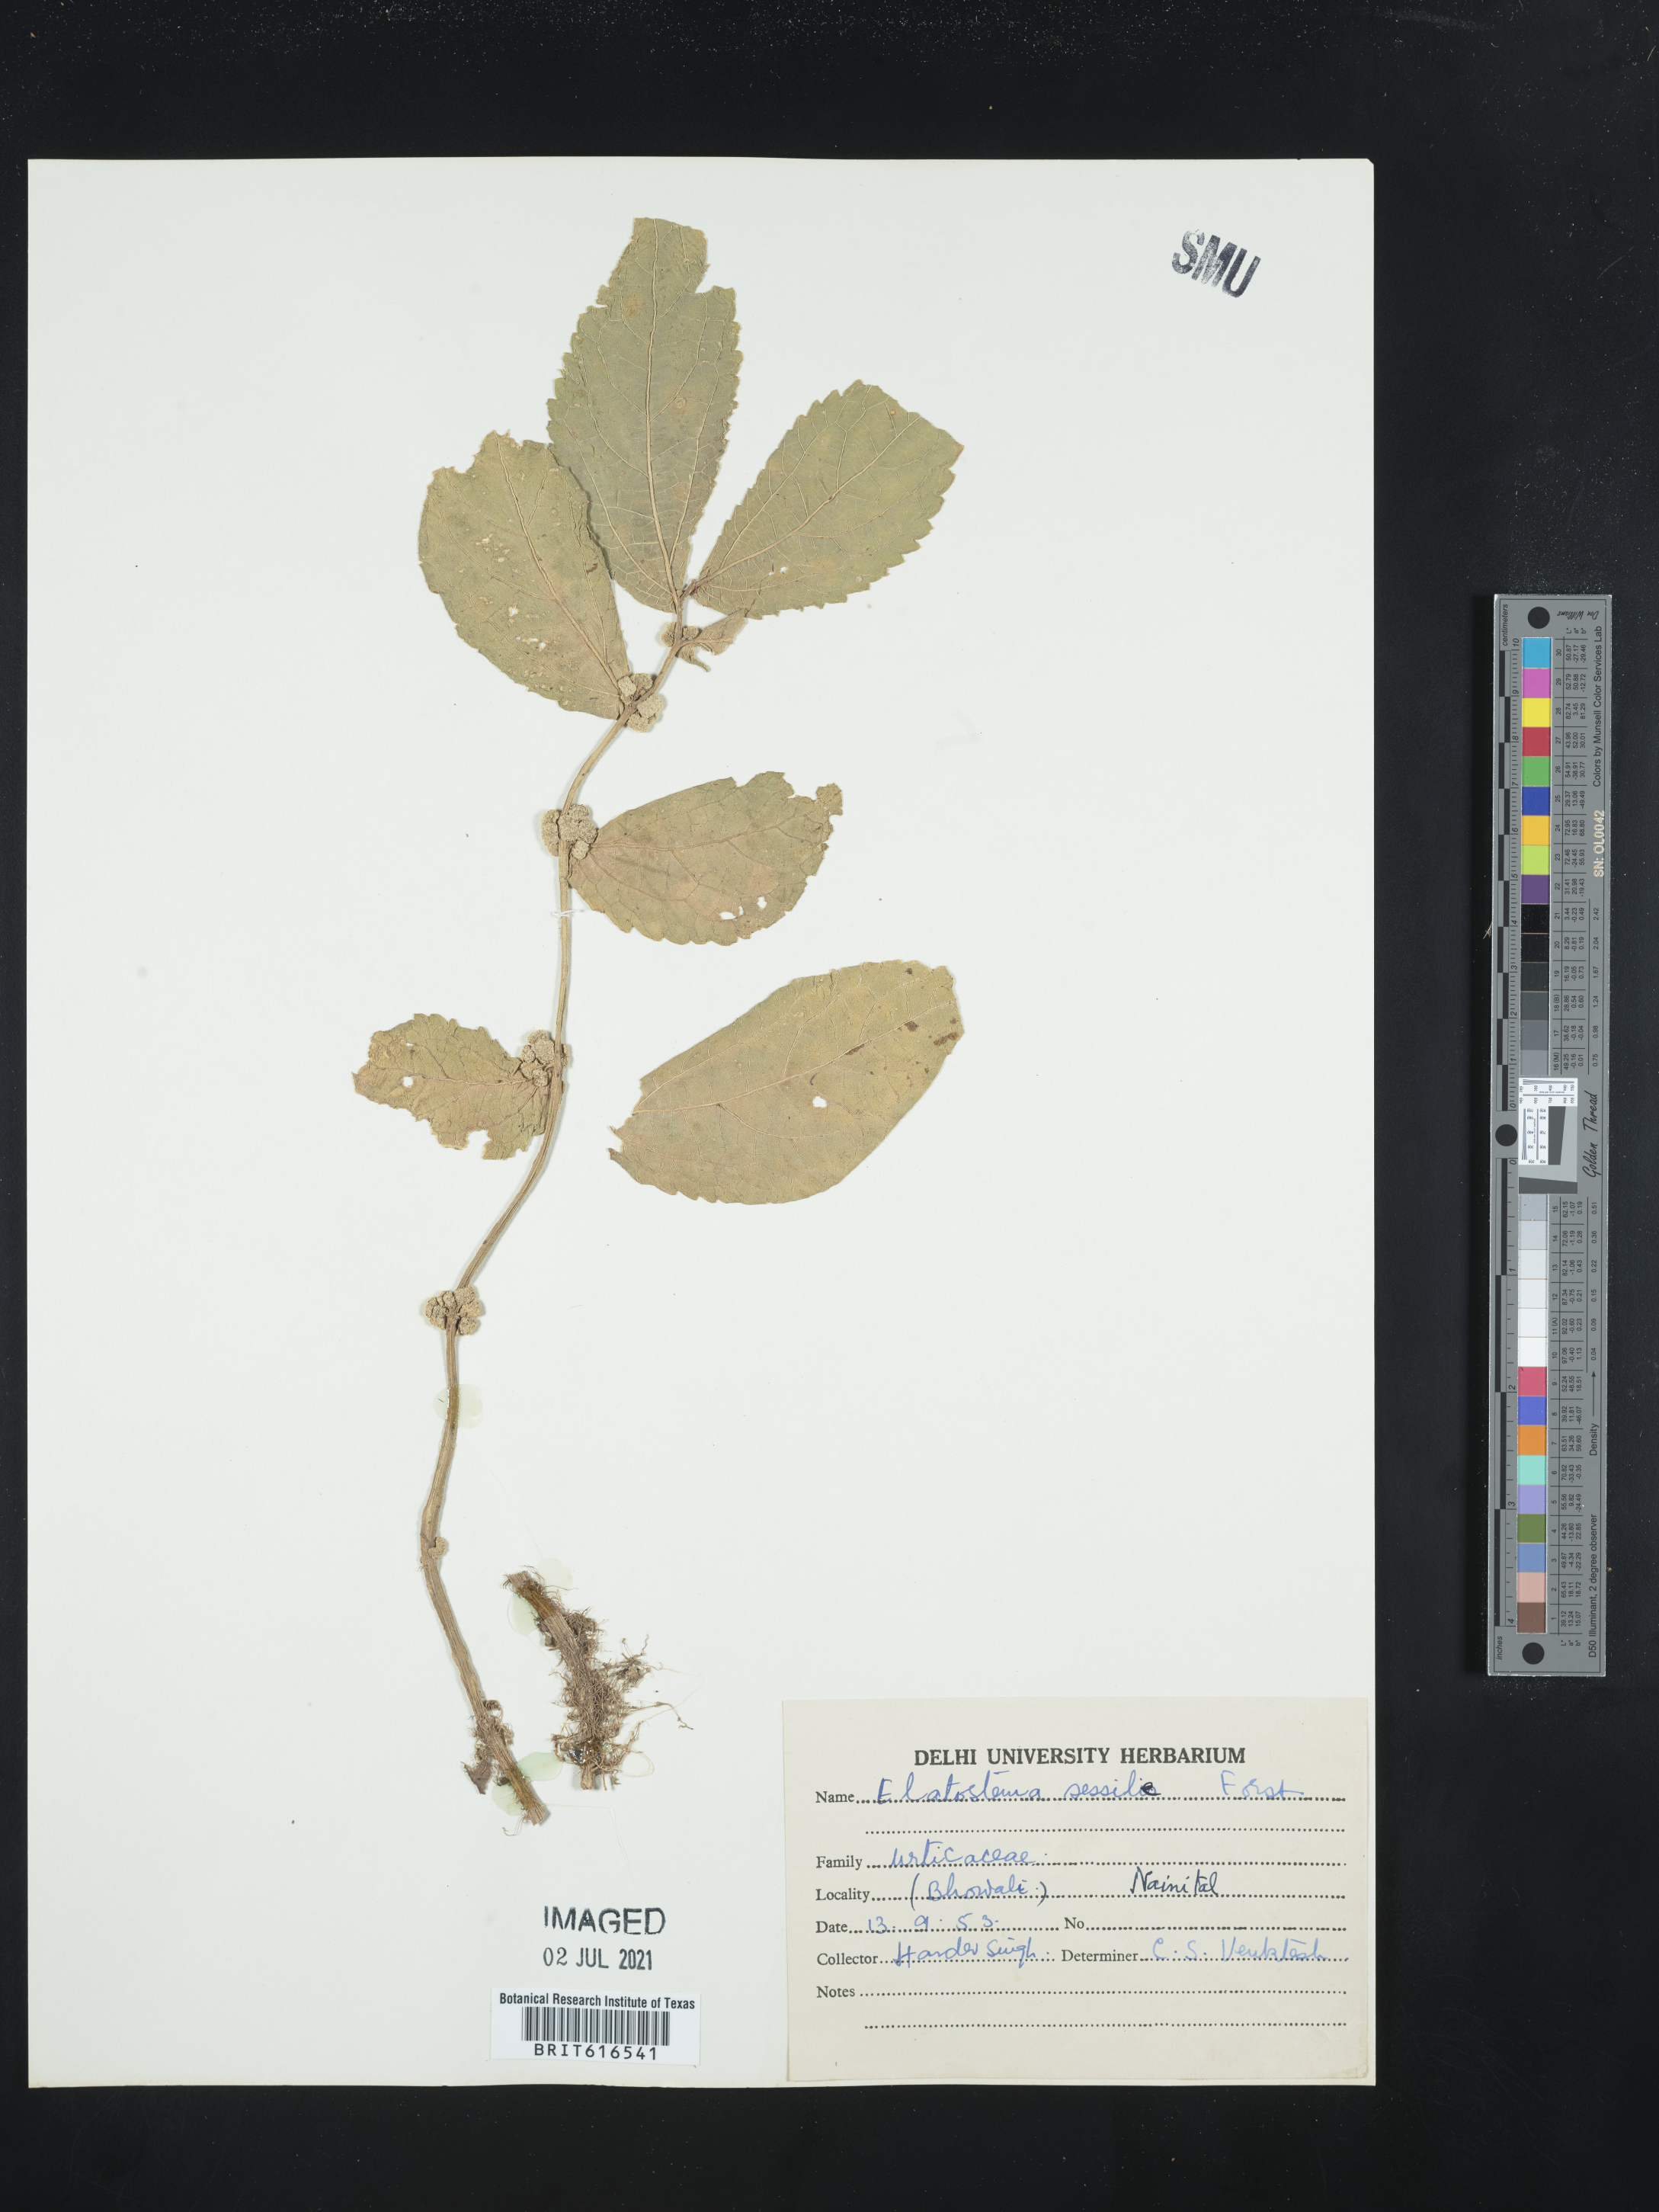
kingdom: Plantae
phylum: Tracheophyta
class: Magnoliopsida
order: Rosales
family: Urticaceae
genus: Elatostema
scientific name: Elatostema sessile
